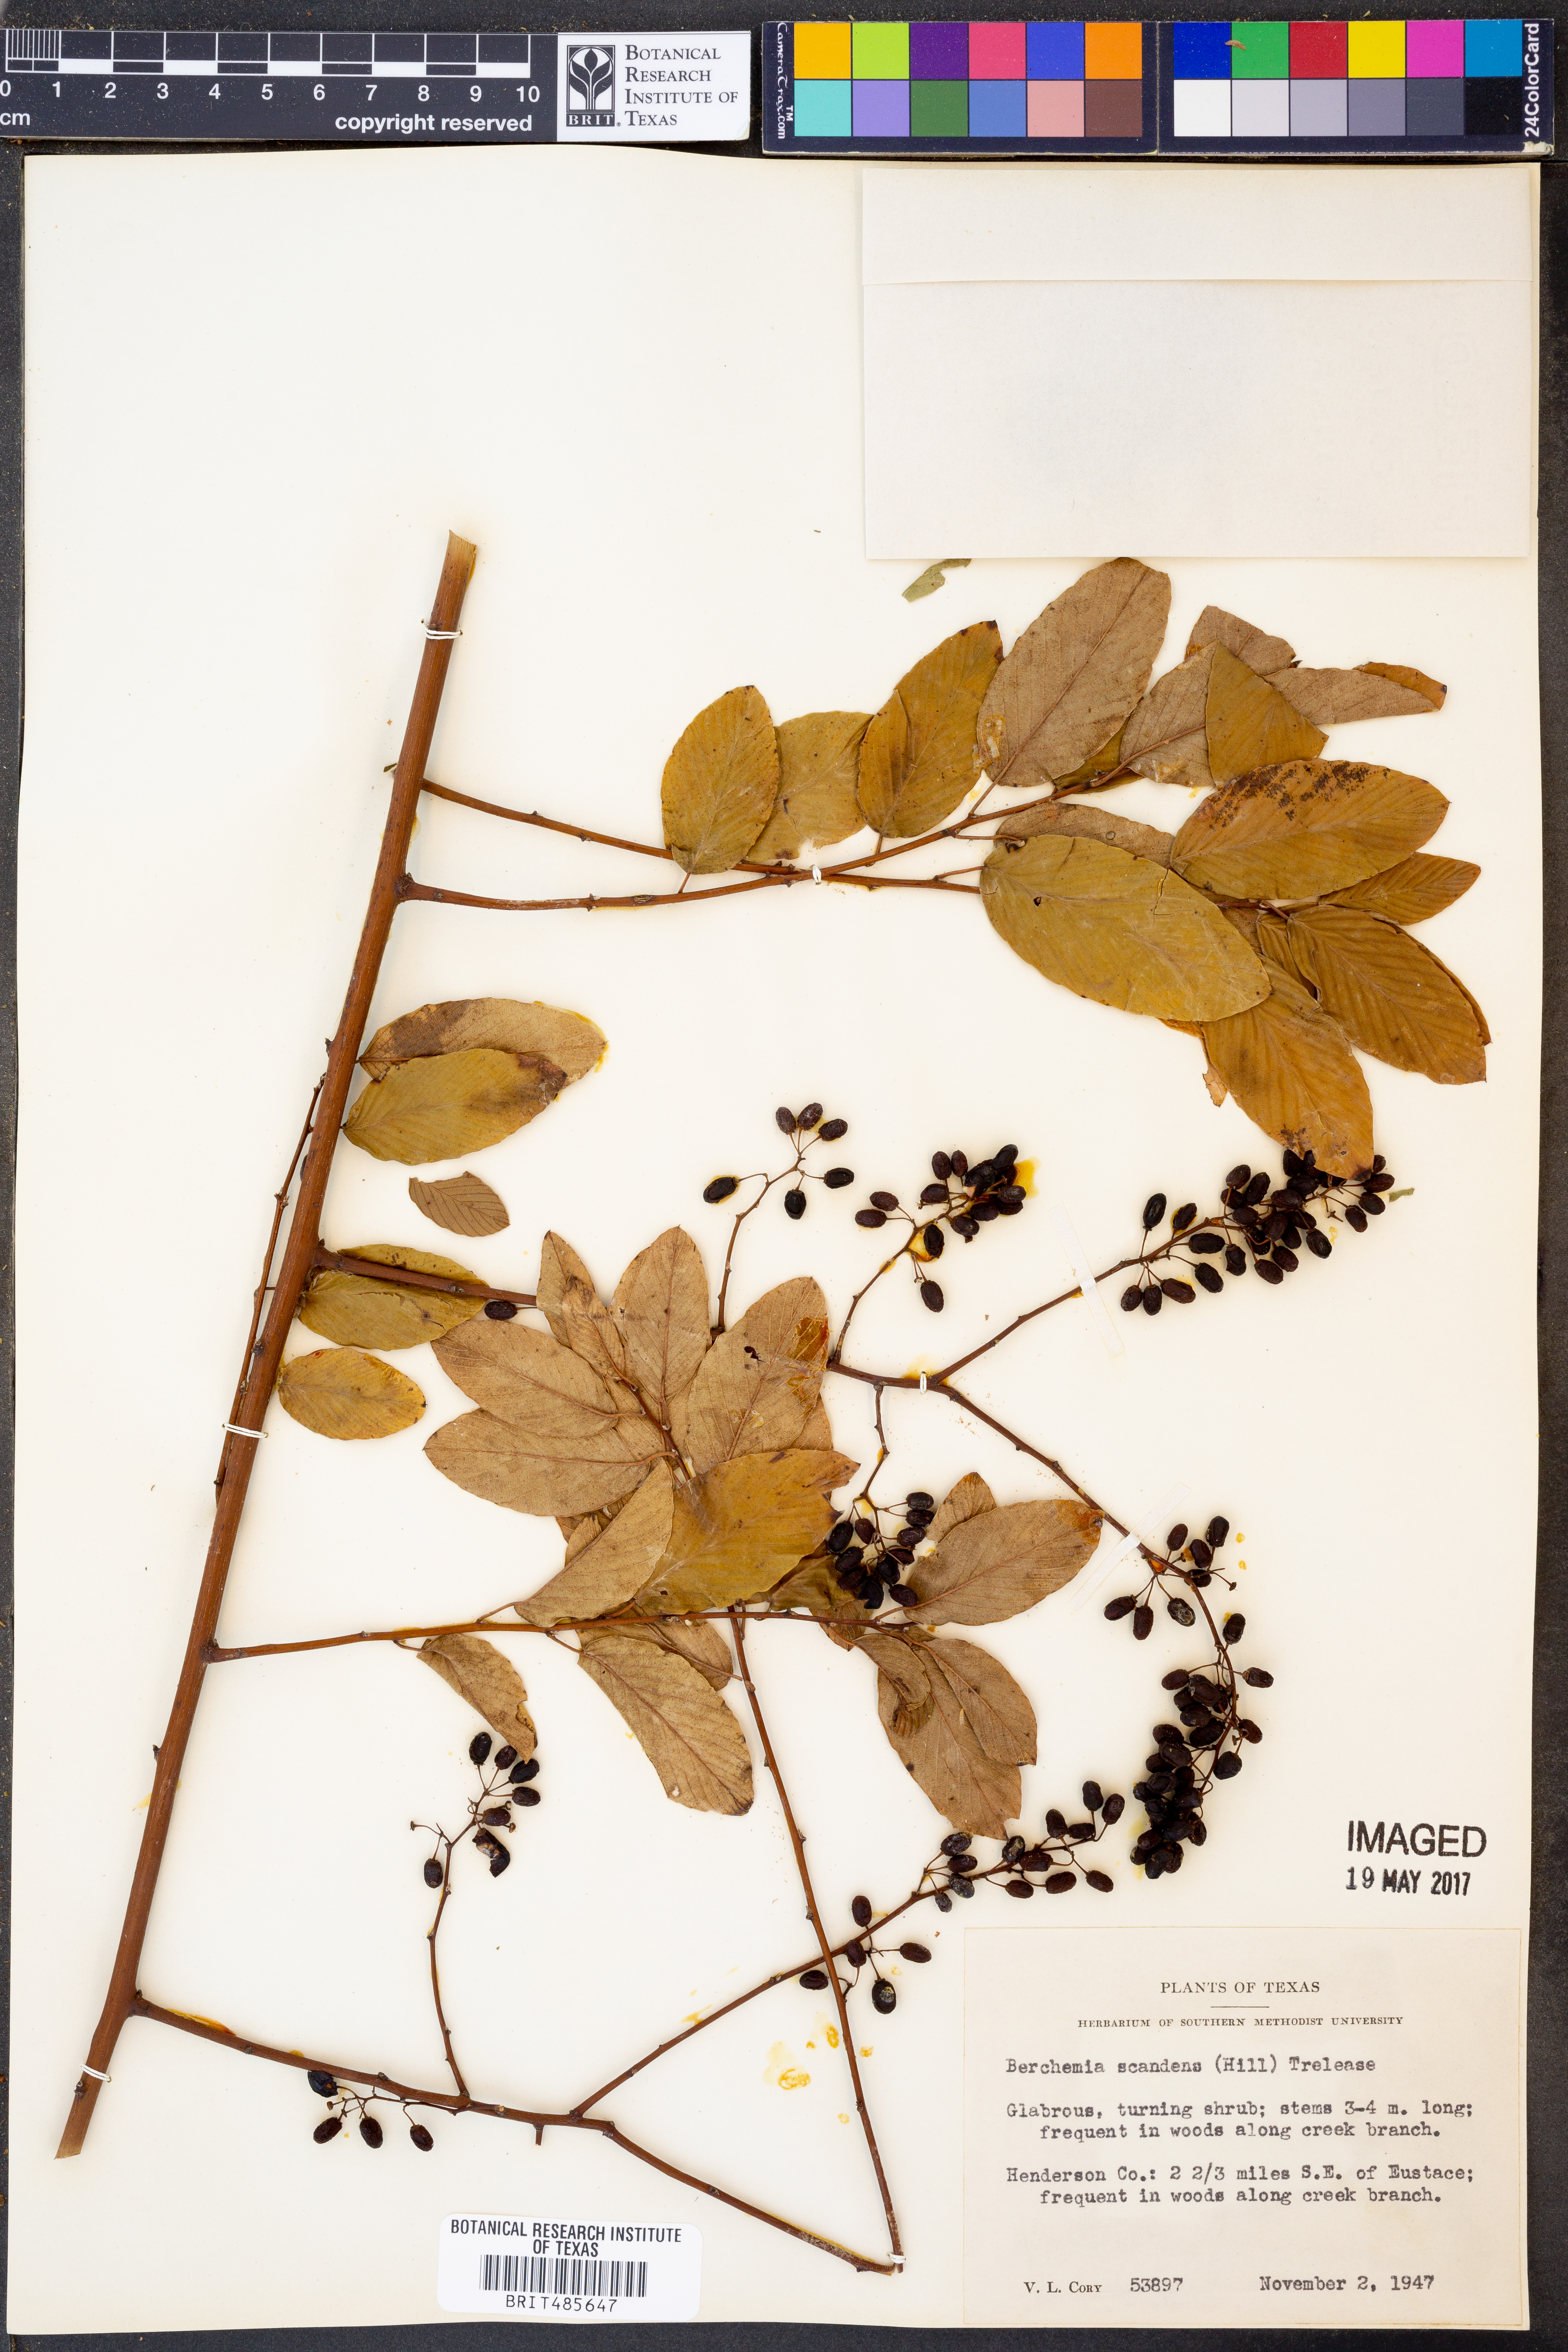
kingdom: Plantae
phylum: Tracheophyta
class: Magnoliopsida
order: Rosales
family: Rhamnaceae
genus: Berchemia
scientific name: Berchemia scandens
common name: Supplejack
